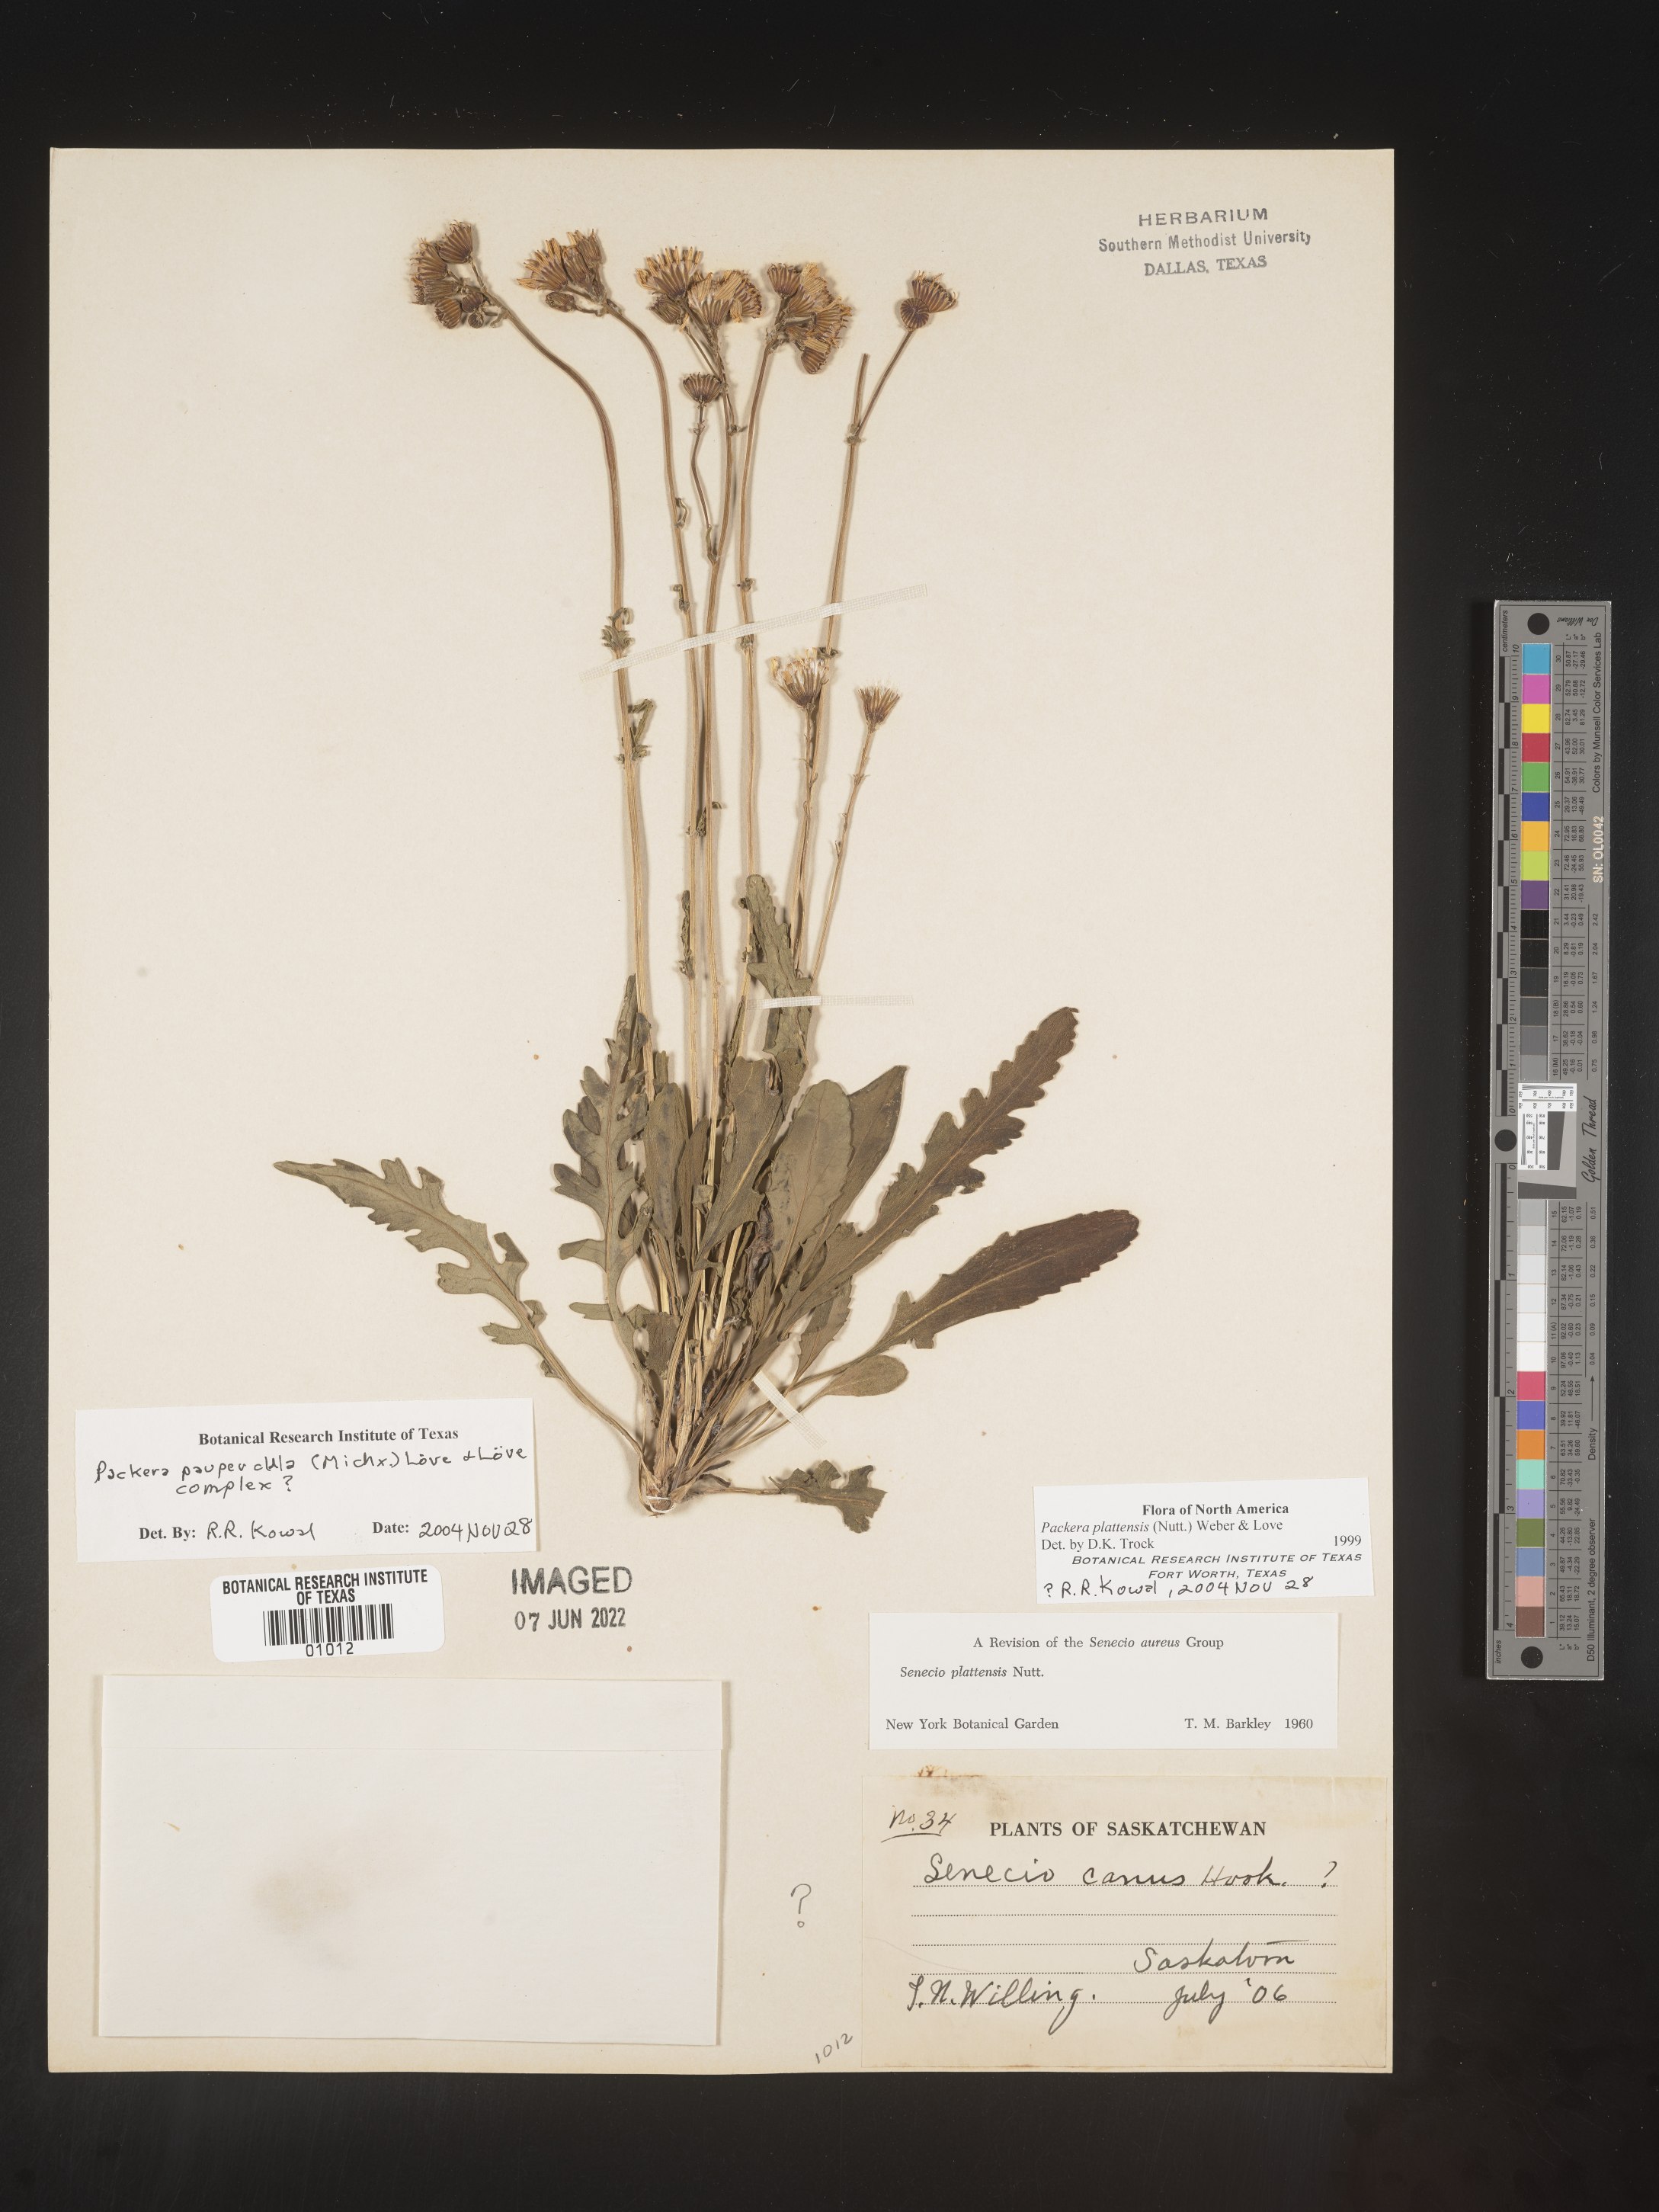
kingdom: Plantae
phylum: Tracheophyta
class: Magnoliopsida
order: Asterales
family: Asteraceae
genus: Packera
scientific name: Packera paupercula
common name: Balsam groundsel
